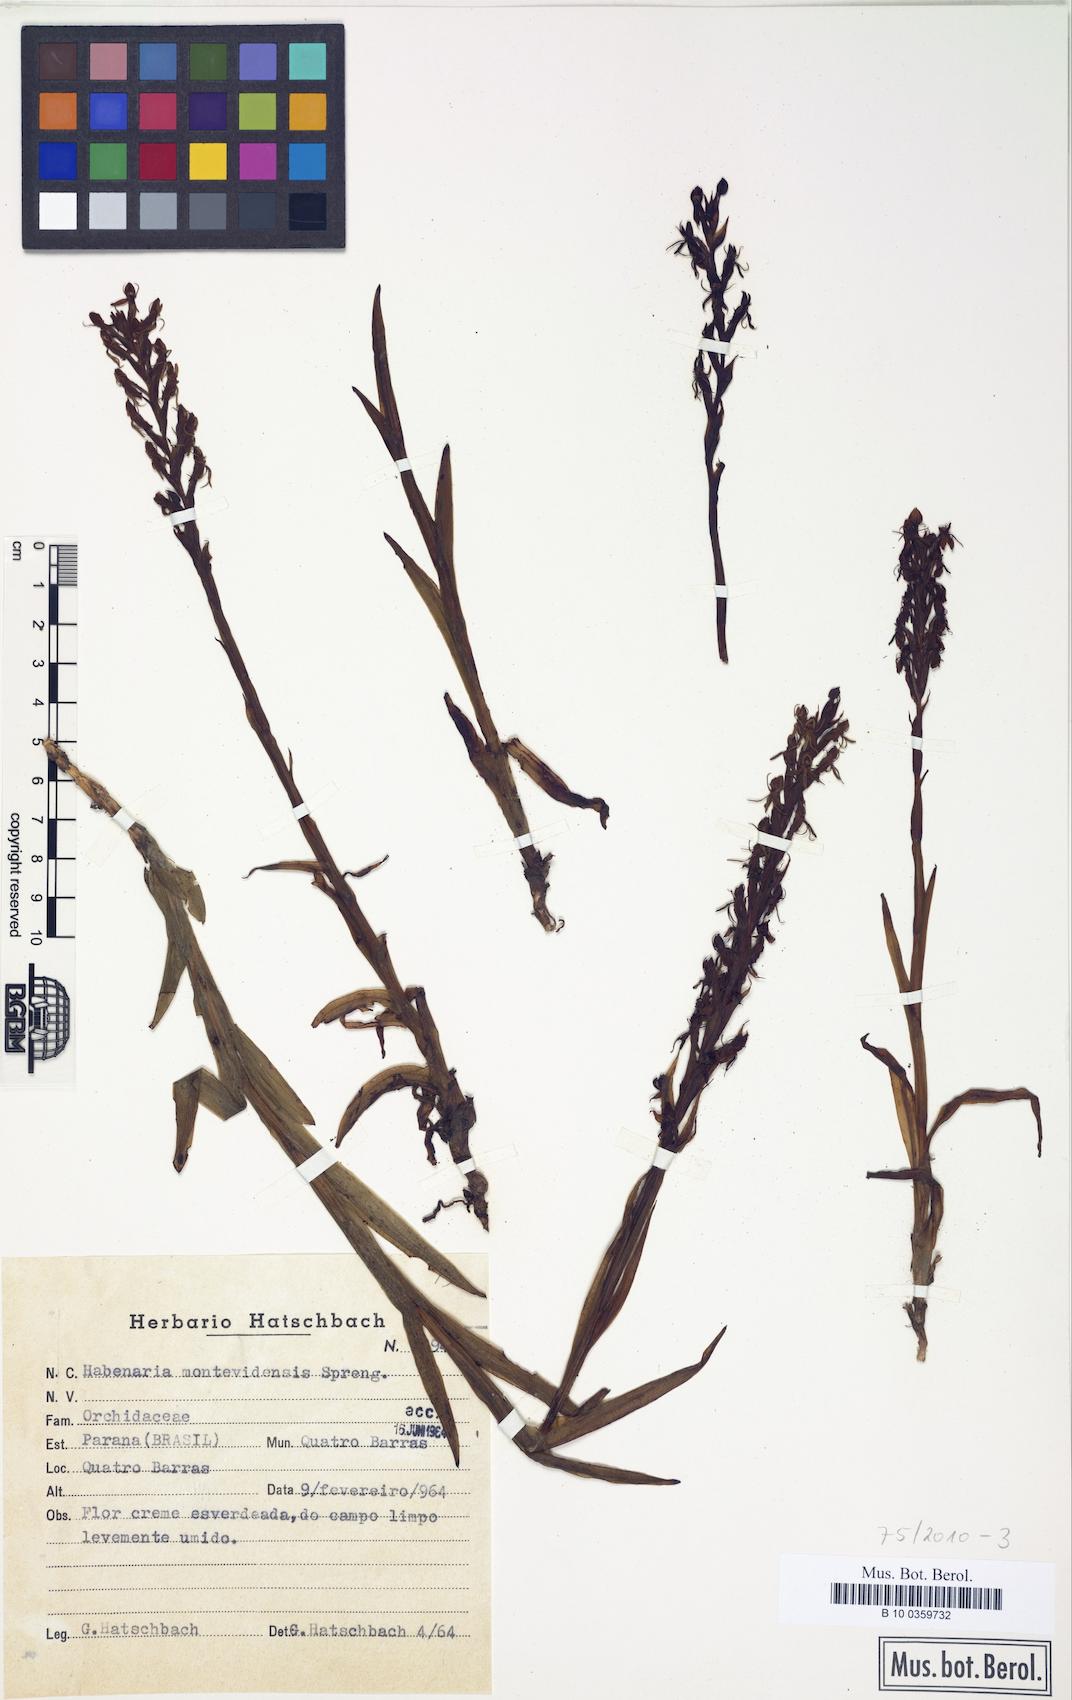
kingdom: Plantae
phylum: Tracheophyta
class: Liliopsida
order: Asparagales
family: Orchidaceae
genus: Habenaria
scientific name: Habenaria repens
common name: Water orchid
